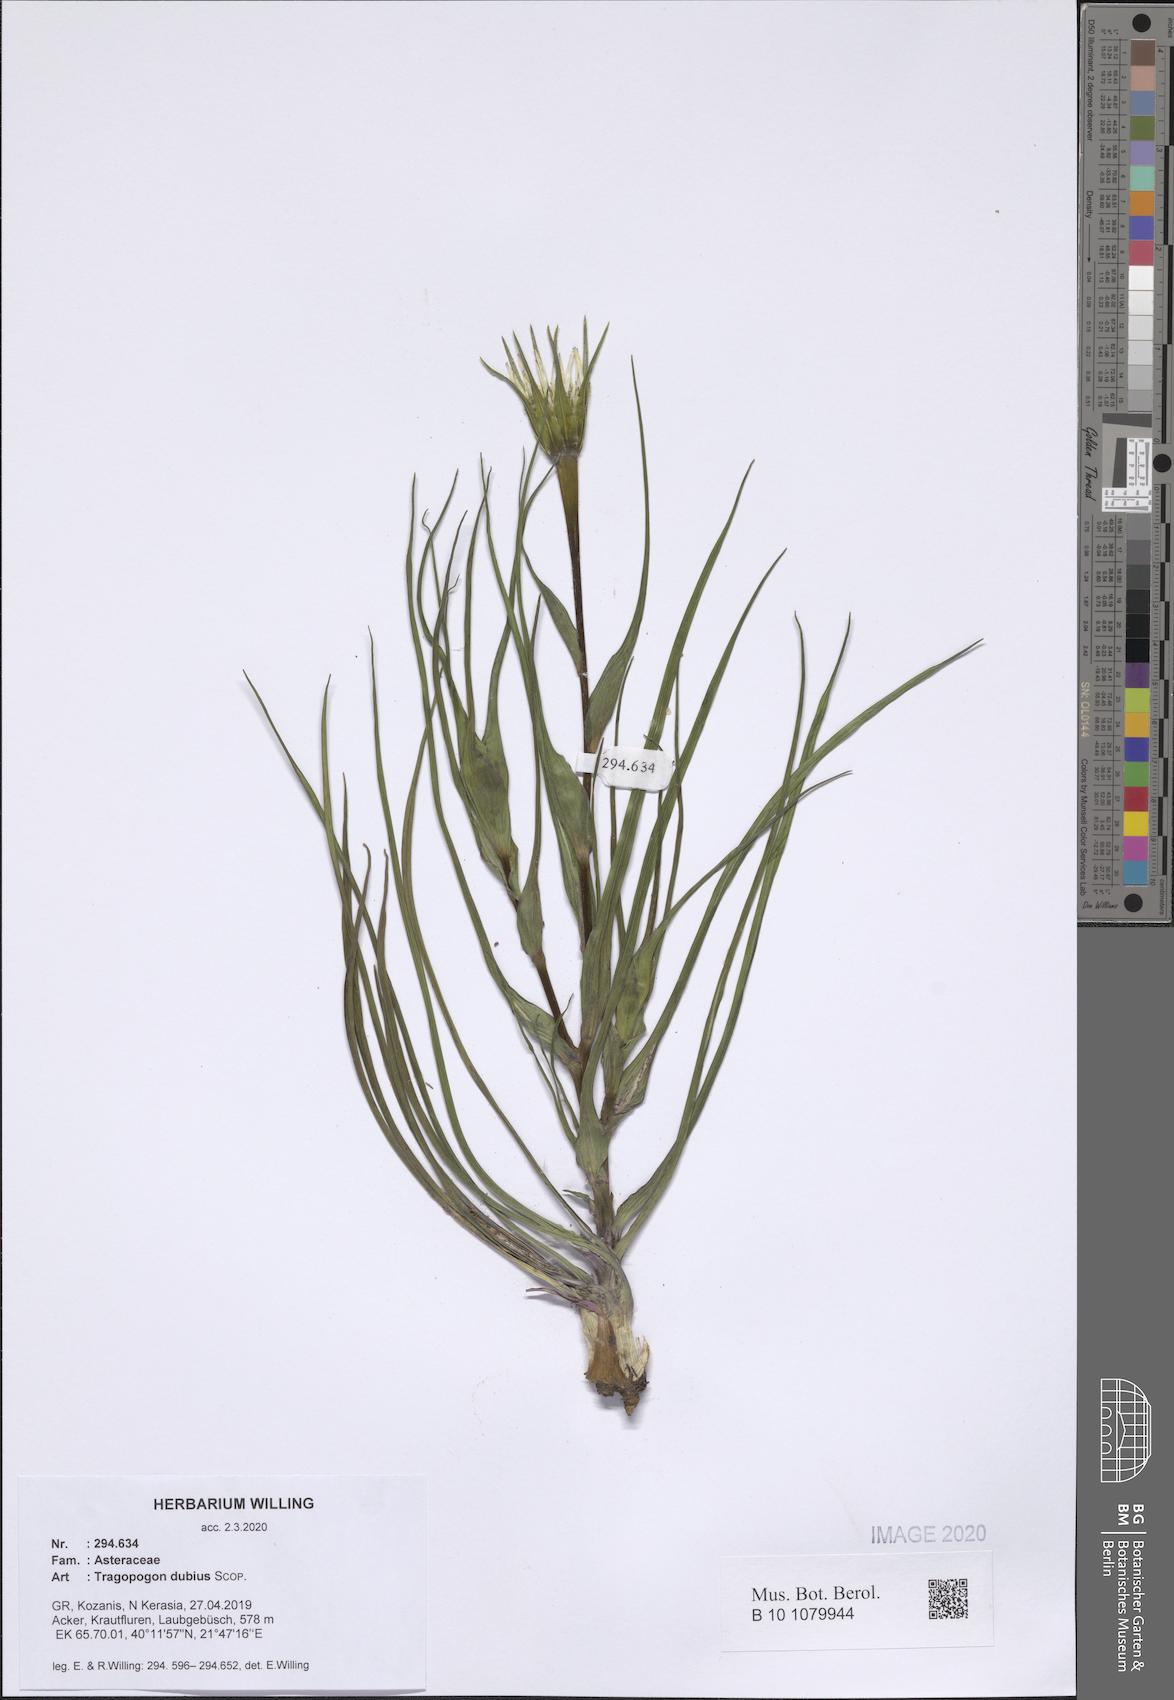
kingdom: Plantae
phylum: Tracheophyta
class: Magnoliopsida
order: Asterales
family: Asteraceae
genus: Tragopogon
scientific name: Tragopogon dubius
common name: Yellow salsify
